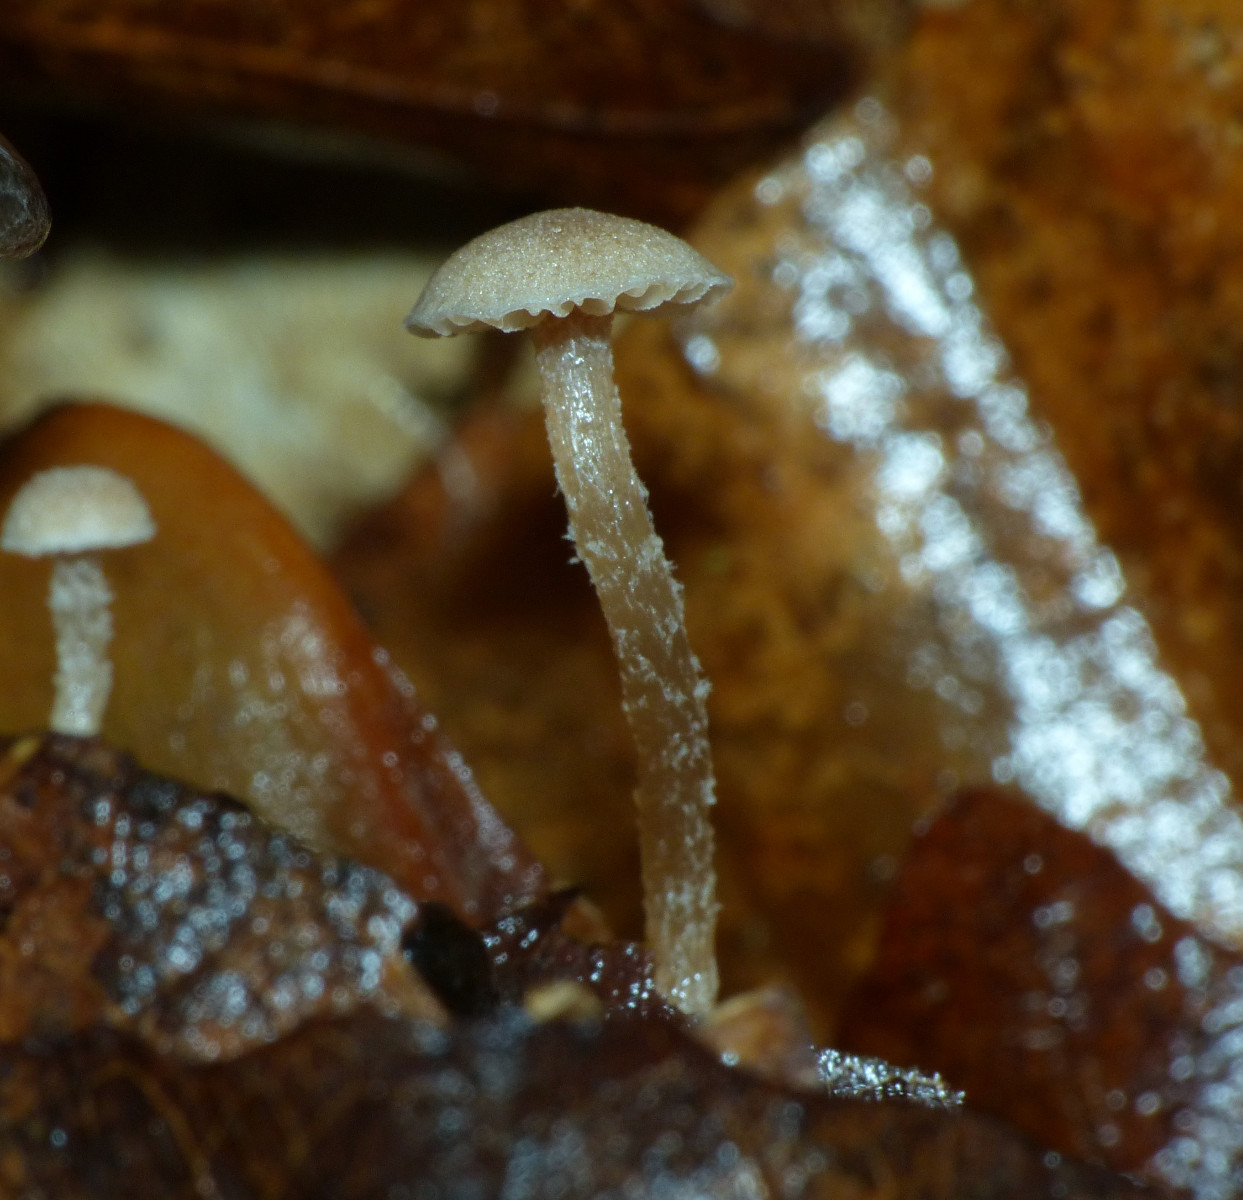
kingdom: Fungi
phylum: Basidiomycota
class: Agaricomycetes
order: Agaricales
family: Tubariaceae
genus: Flammulaster
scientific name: Flammulaster
